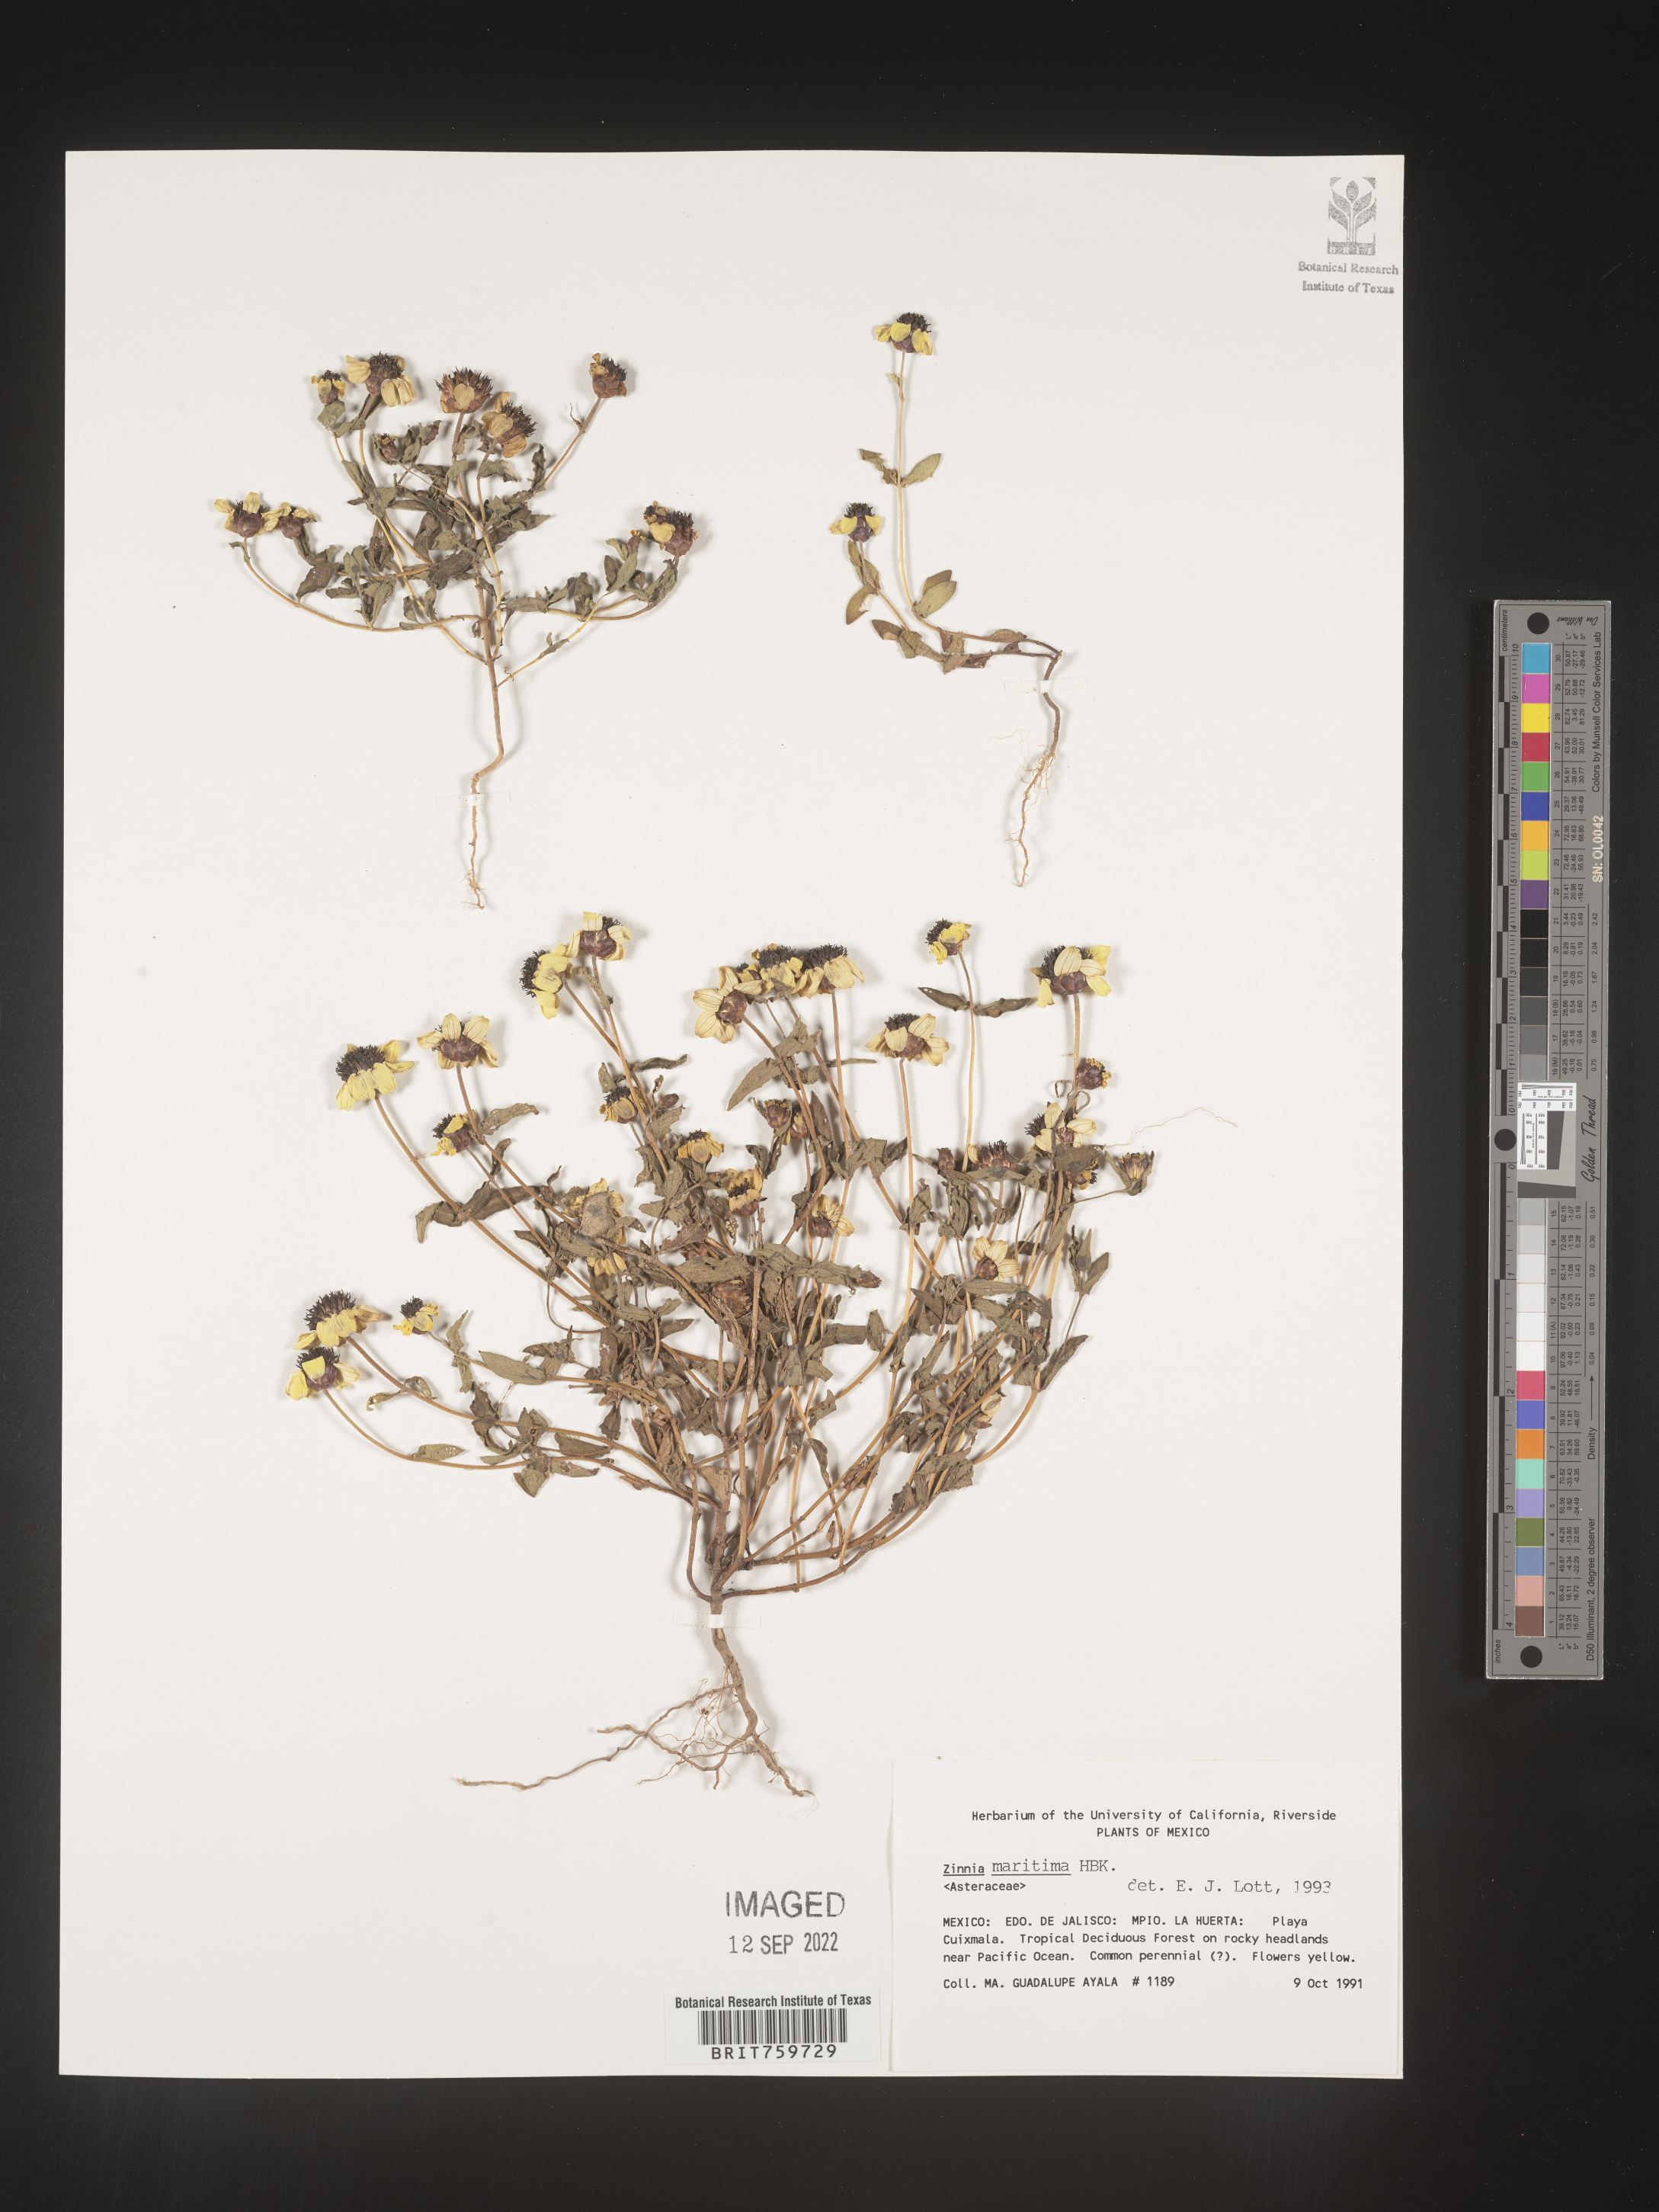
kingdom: Plantae
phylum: Tracheophyta
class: Magnoliopsida
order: Asterales
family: Asteraceae
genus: Zinnia
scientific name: Zinnia
